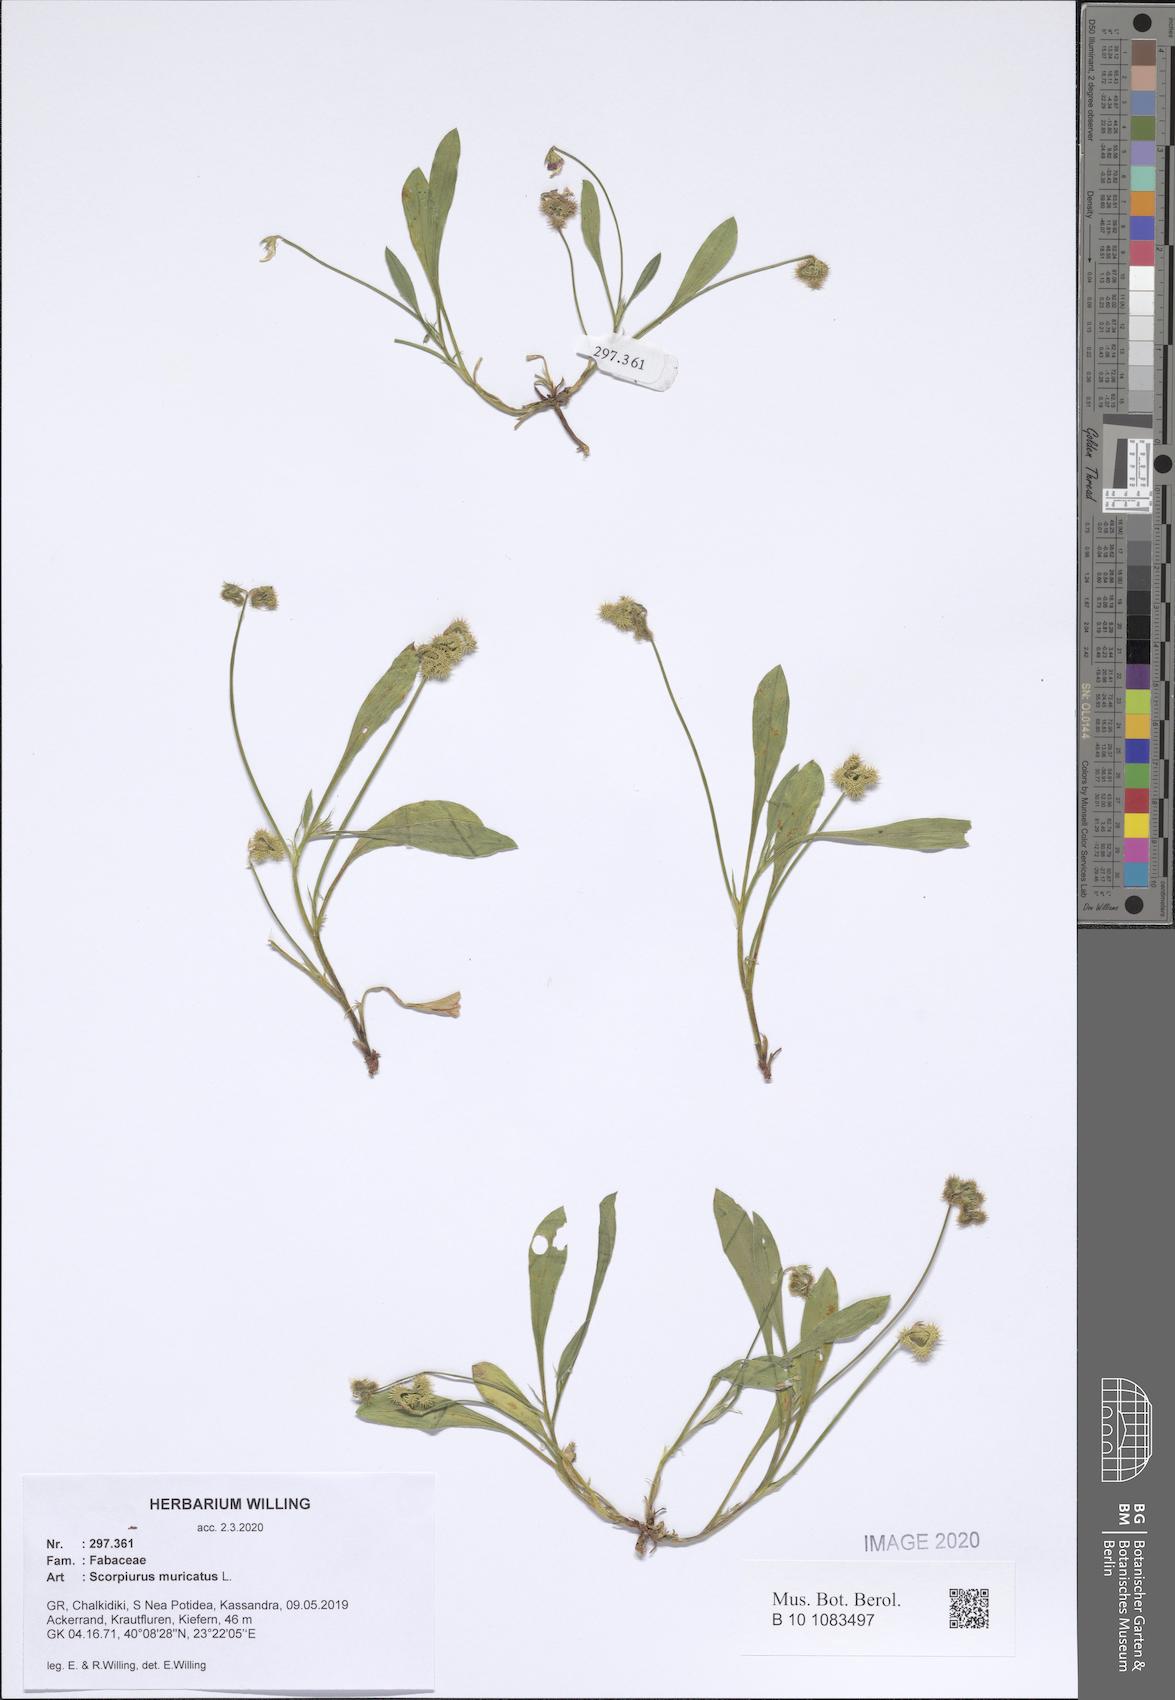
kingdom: Plantae
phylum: Tracheophyta
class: Magnoliopsida
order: Fabales
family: Fabaceae
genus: Scorpiurus
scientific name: Scorpiurus muricatus
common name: Caterpillar-plant
